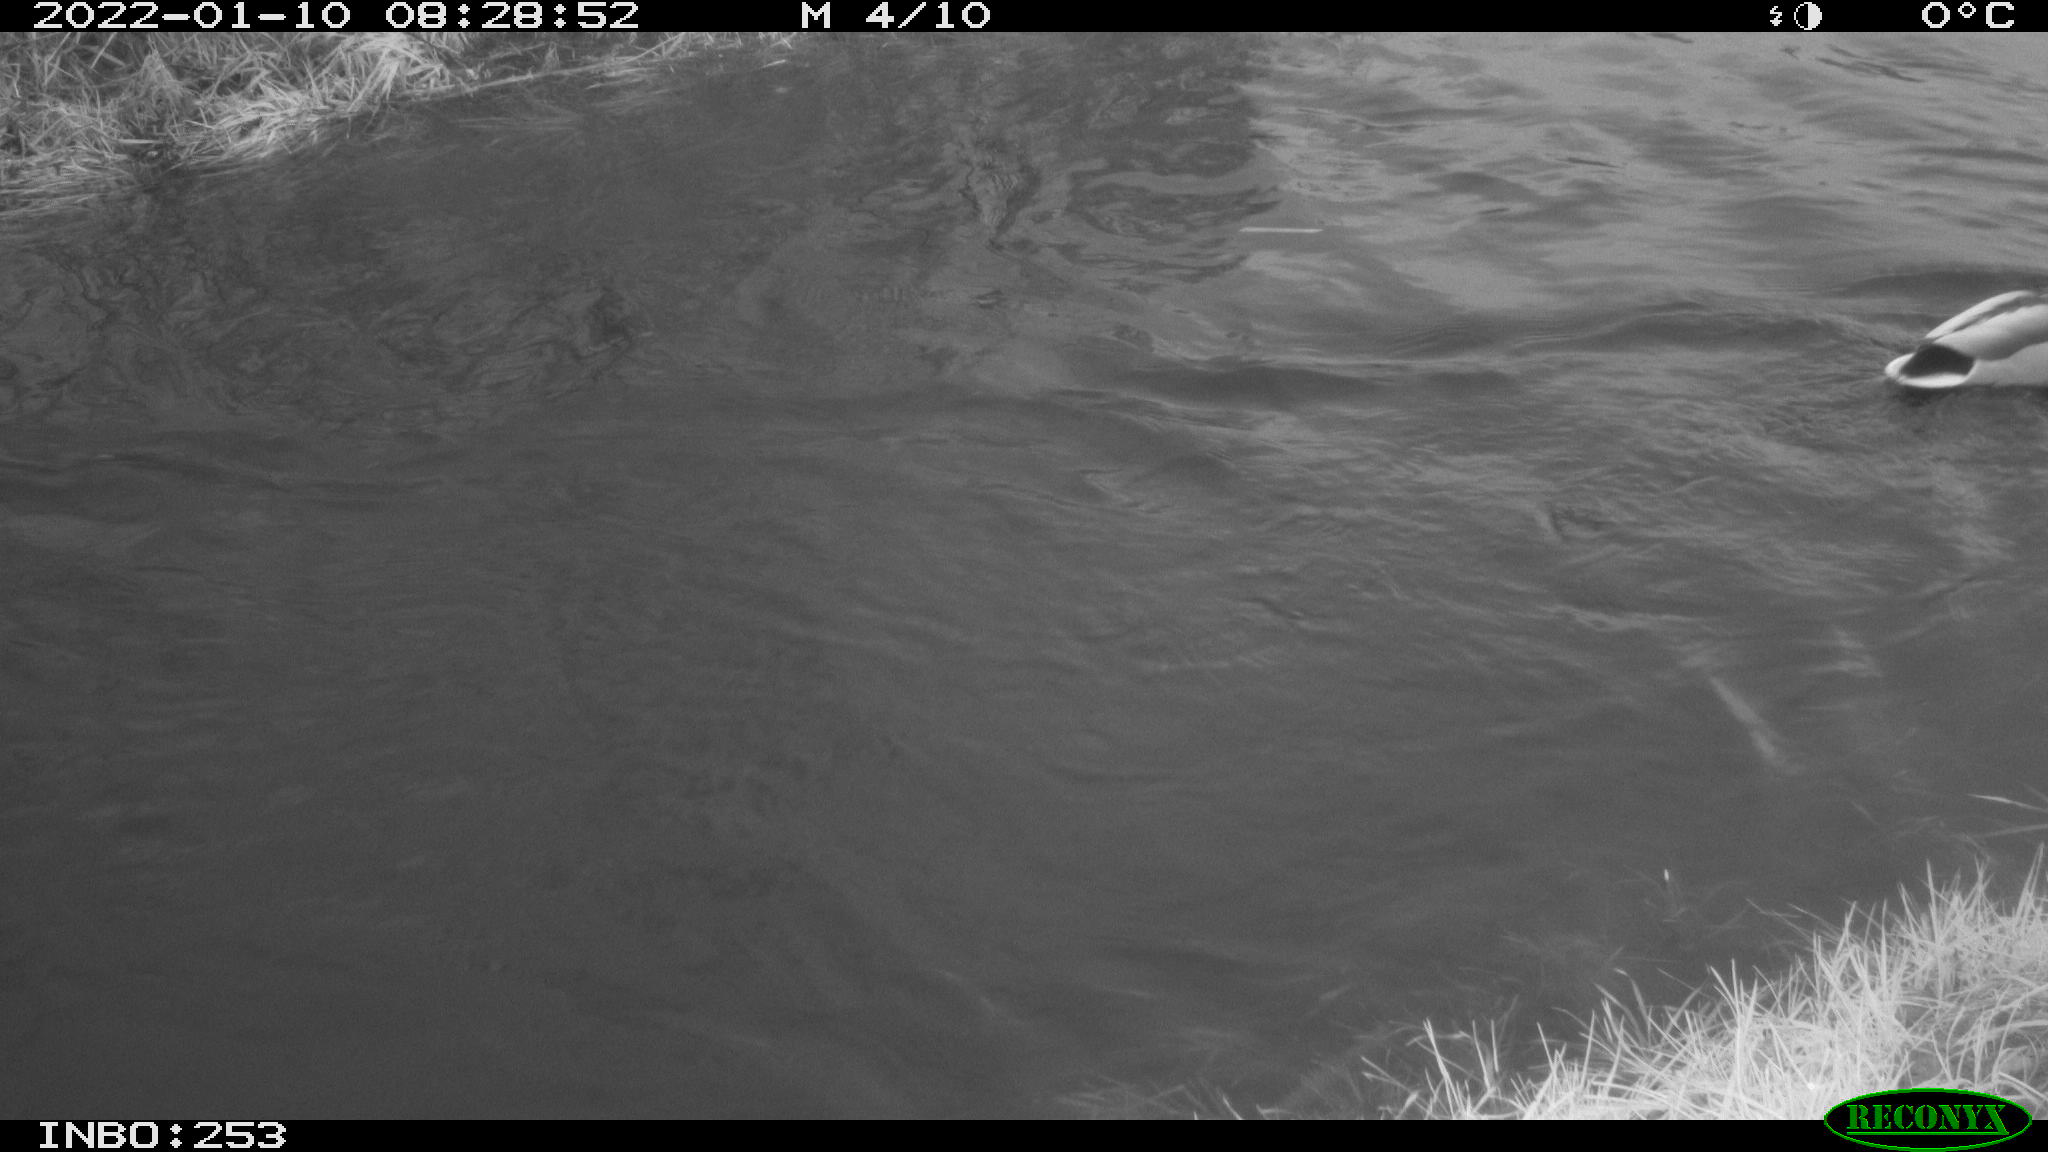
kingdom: Animalia
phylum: Chordata
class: Aves
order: Anseriformes
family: Anatidae
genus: Anas
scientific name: Anas
